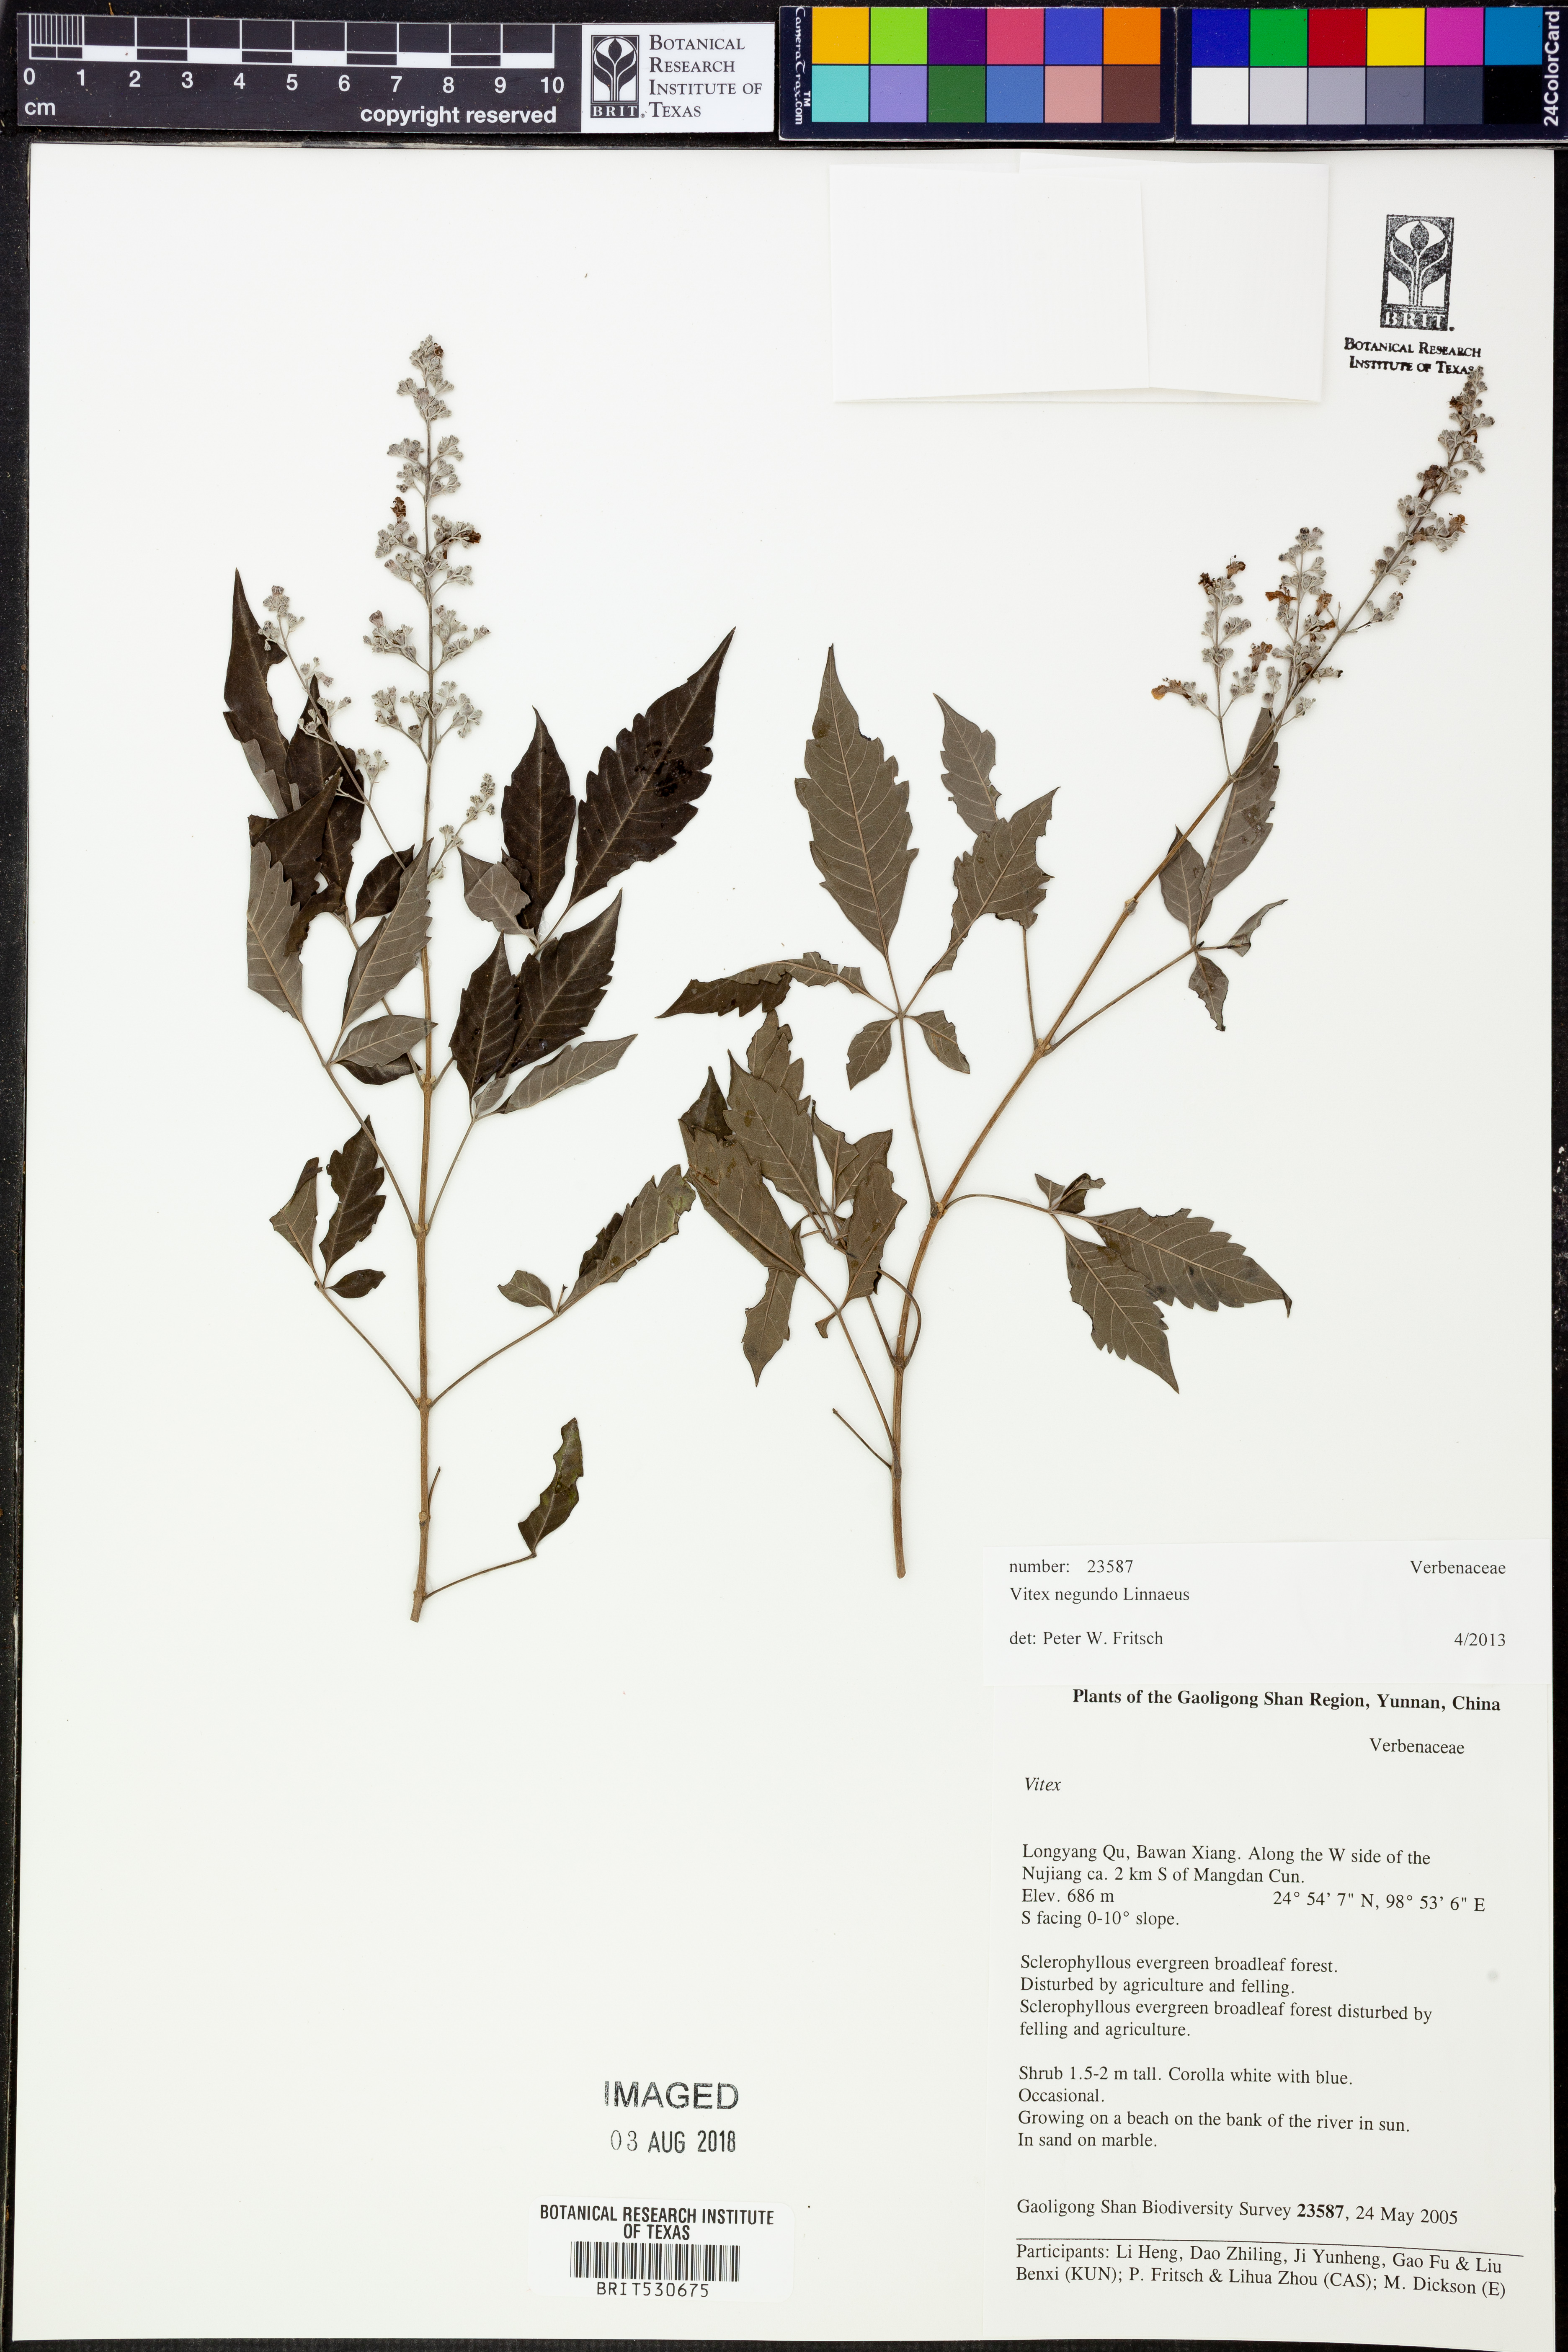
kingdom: Plantae
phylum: Tracheophyta
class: Magnoliopsida
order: Lamiales
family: Lamiaceae
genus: Vitex
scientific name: Vitex negundo
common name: Chinese chastetree
